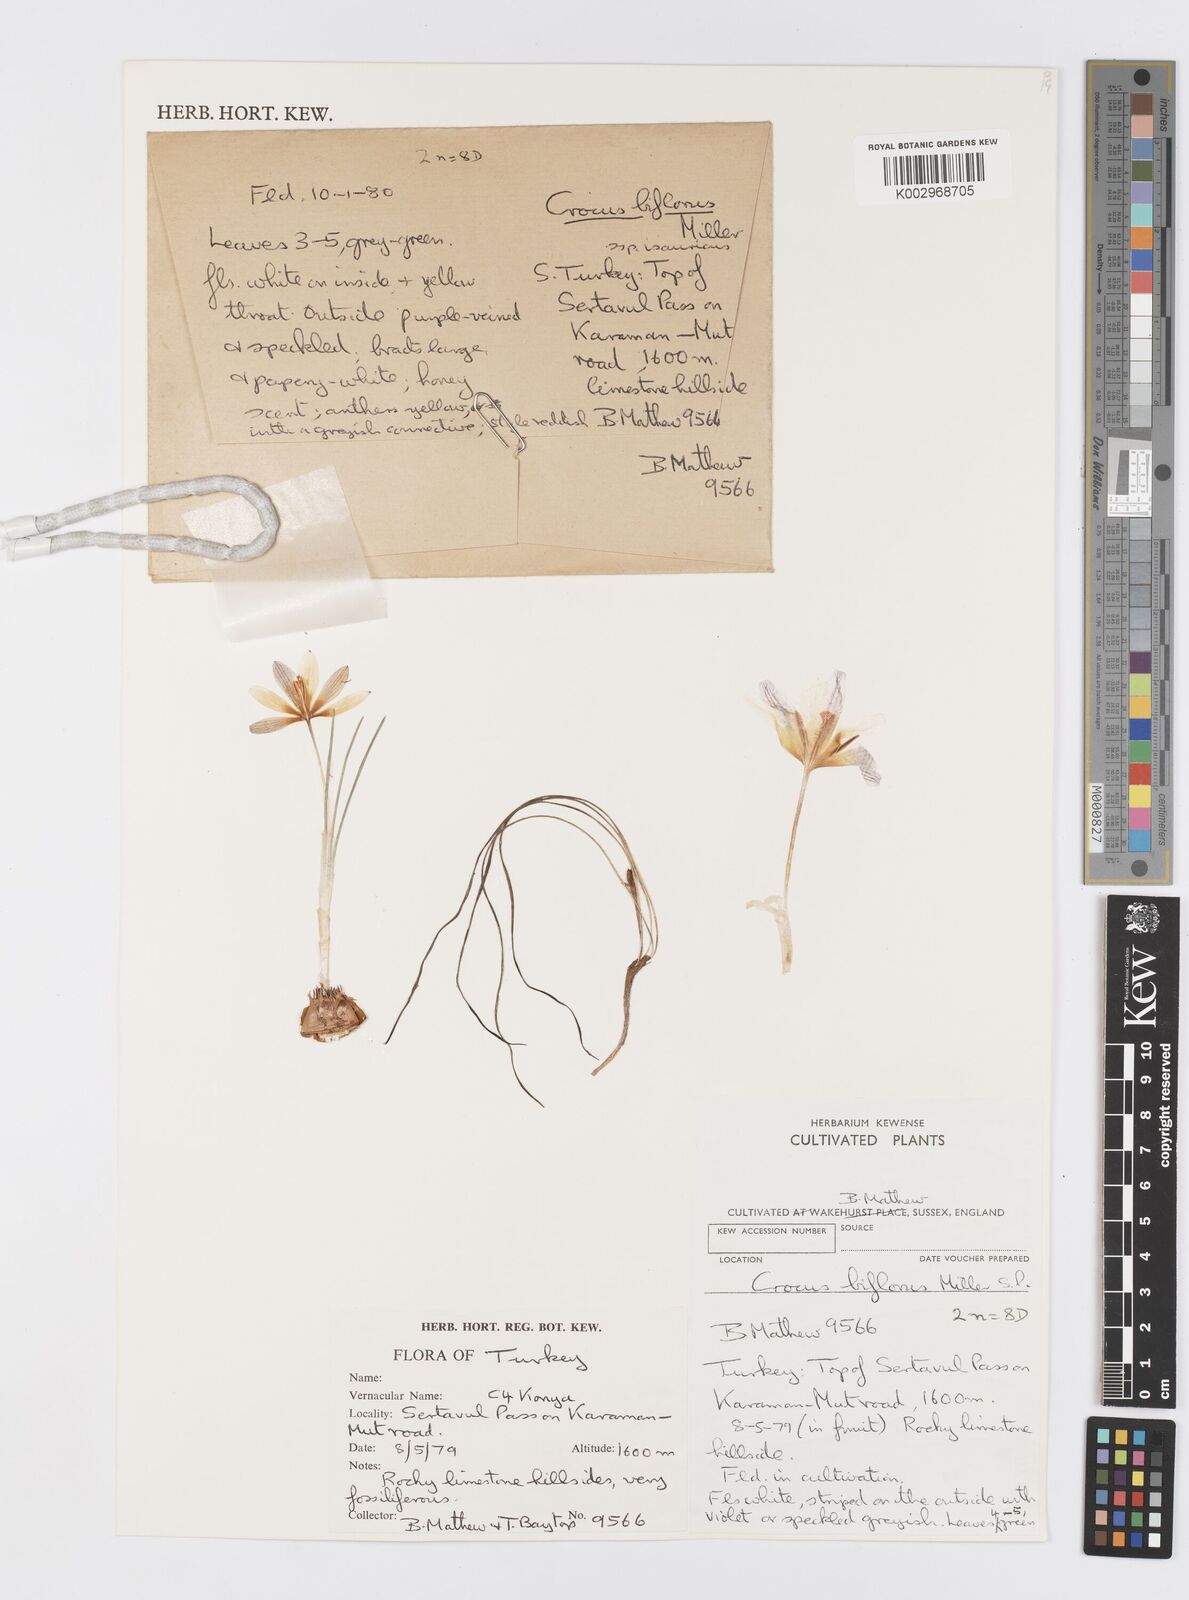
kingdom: Plantae
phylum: Tracheophyta
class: Liliopsida
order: Asparagales
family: Iridaceae
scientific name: Iridaceae
